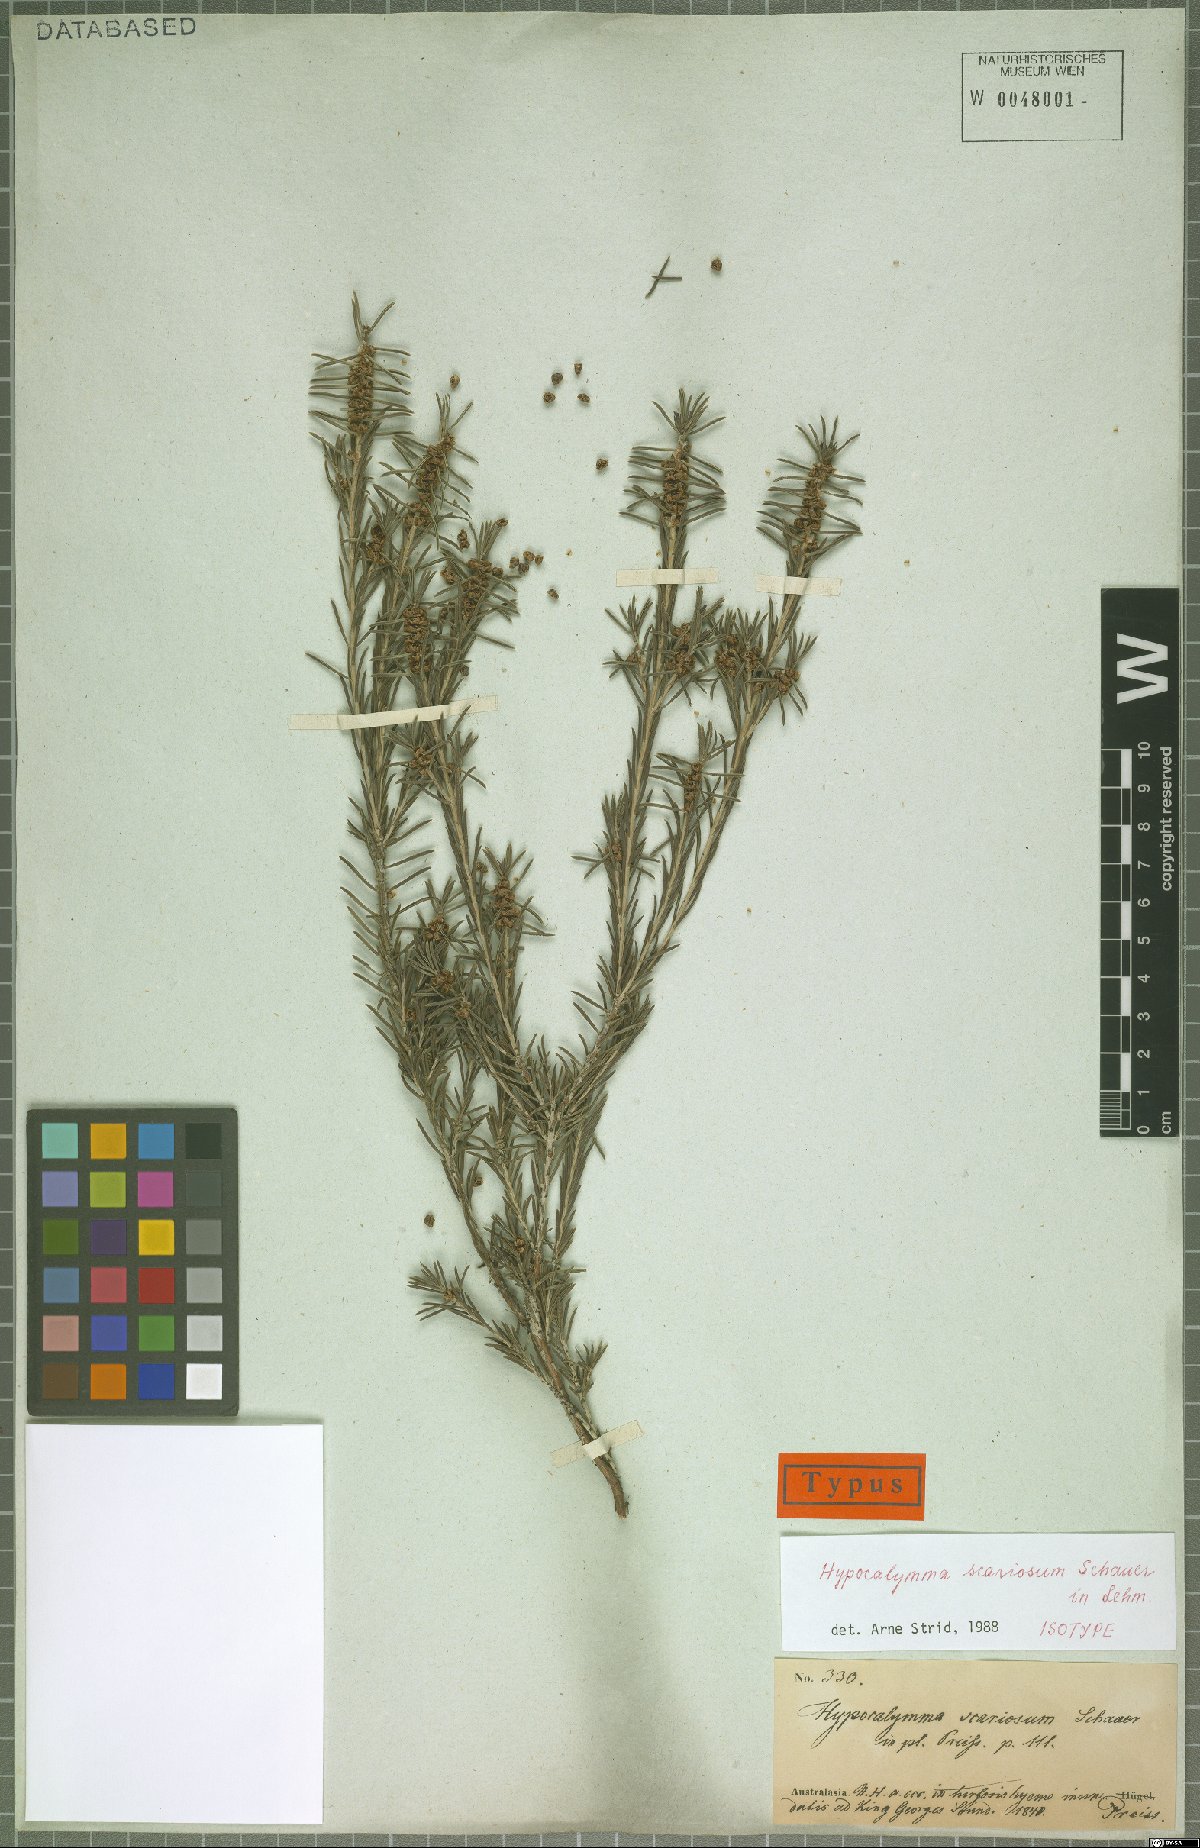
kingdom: Plantae
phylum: Tracheophyta
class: Magnoliopsida
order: Myrtales
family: Myrtaceae
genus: Hypocalymma
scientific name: Hypocalymma scariosum
